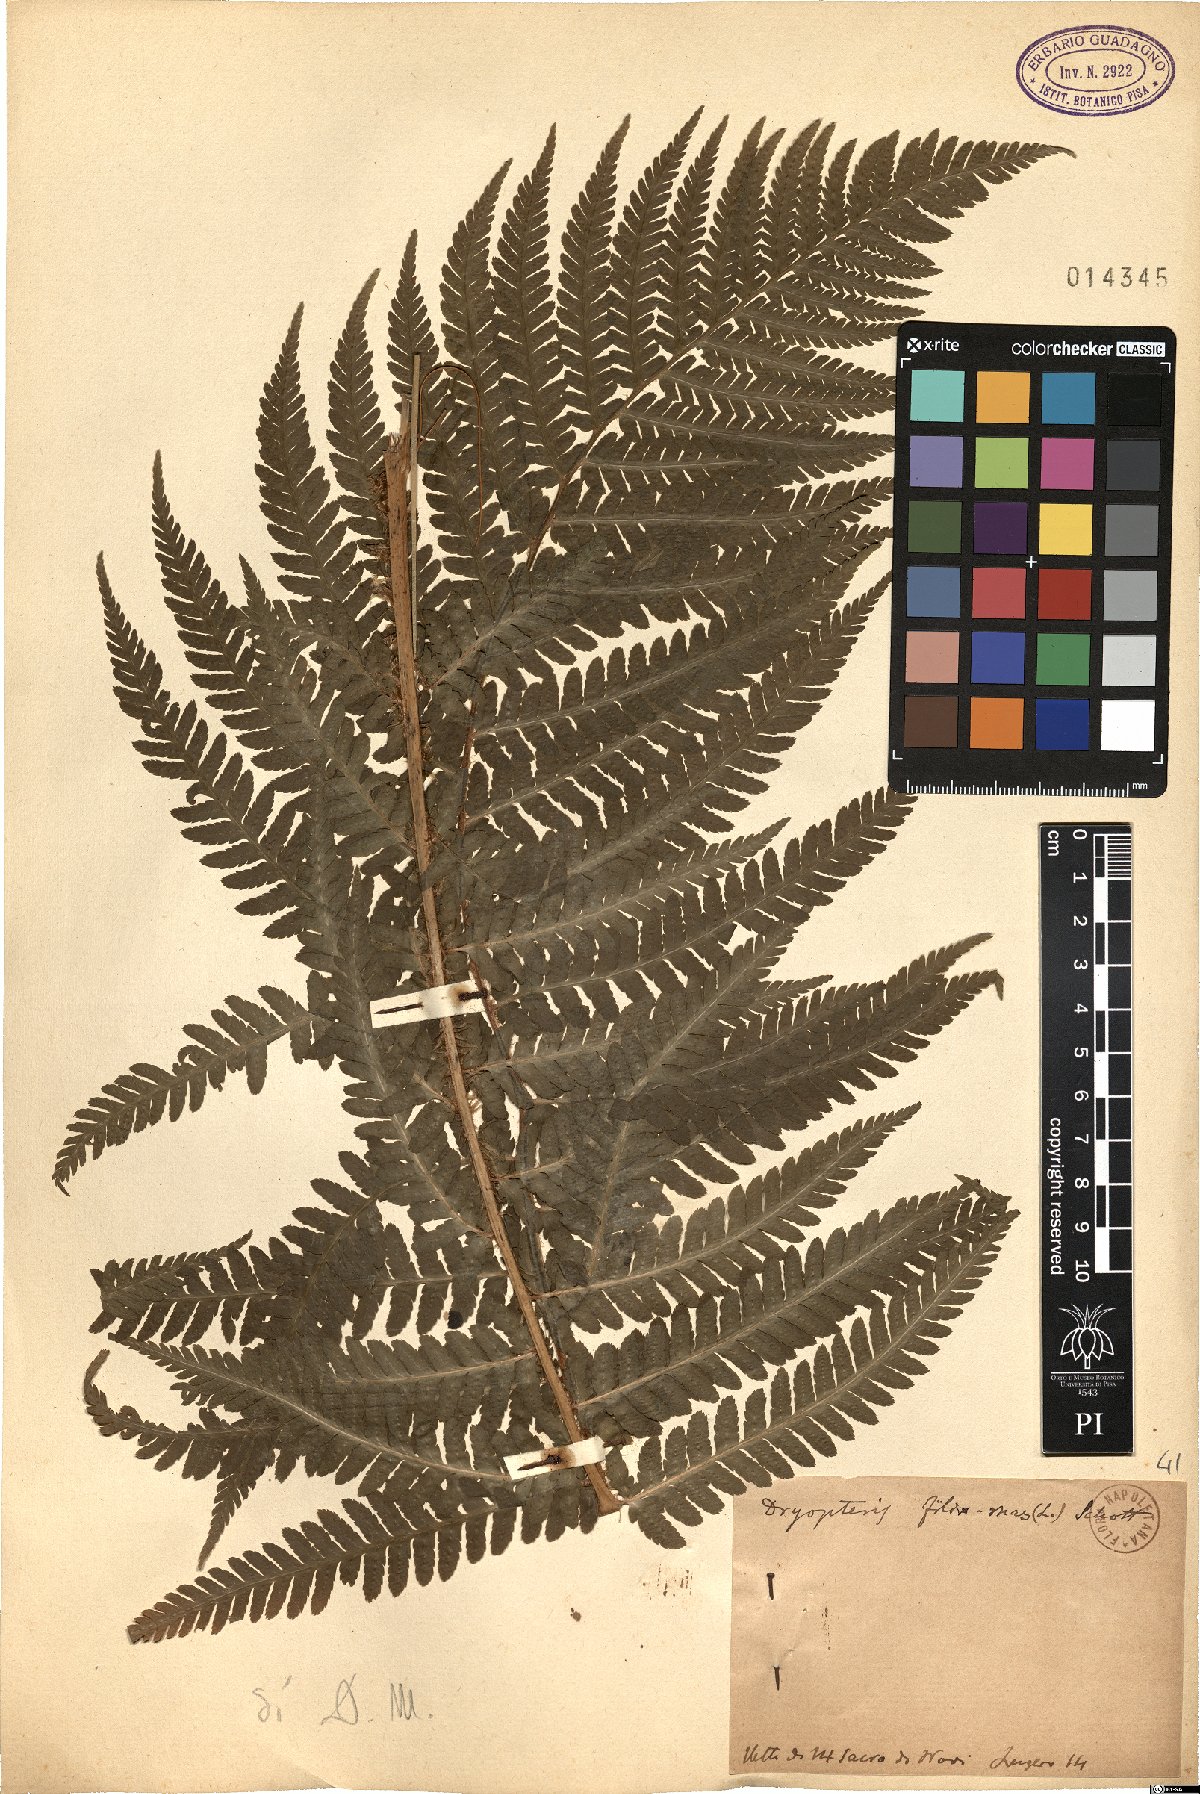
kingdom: Plantae
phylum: Tracheophyta
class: Polypodiopsida
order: Polypodiales
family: Dryopteridaceae
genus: Dryopteris
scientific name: Dryopteris filix-mas
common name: Male fern
